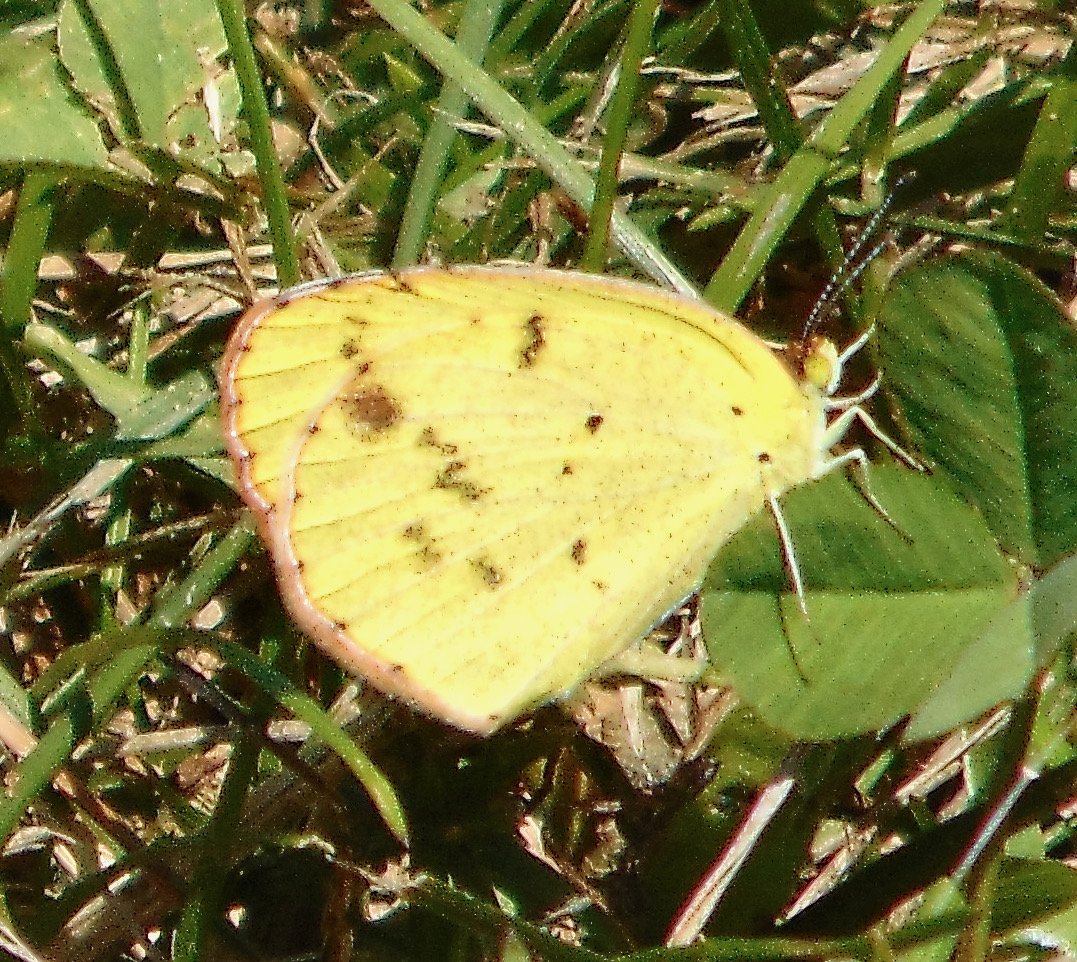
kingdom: Animalia
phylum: Arthropoda
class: Insecta
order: Lepidoptera
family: Pieridae
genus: Pyrisitia
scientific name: Pyrisitia lisa
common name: Little Yellow
